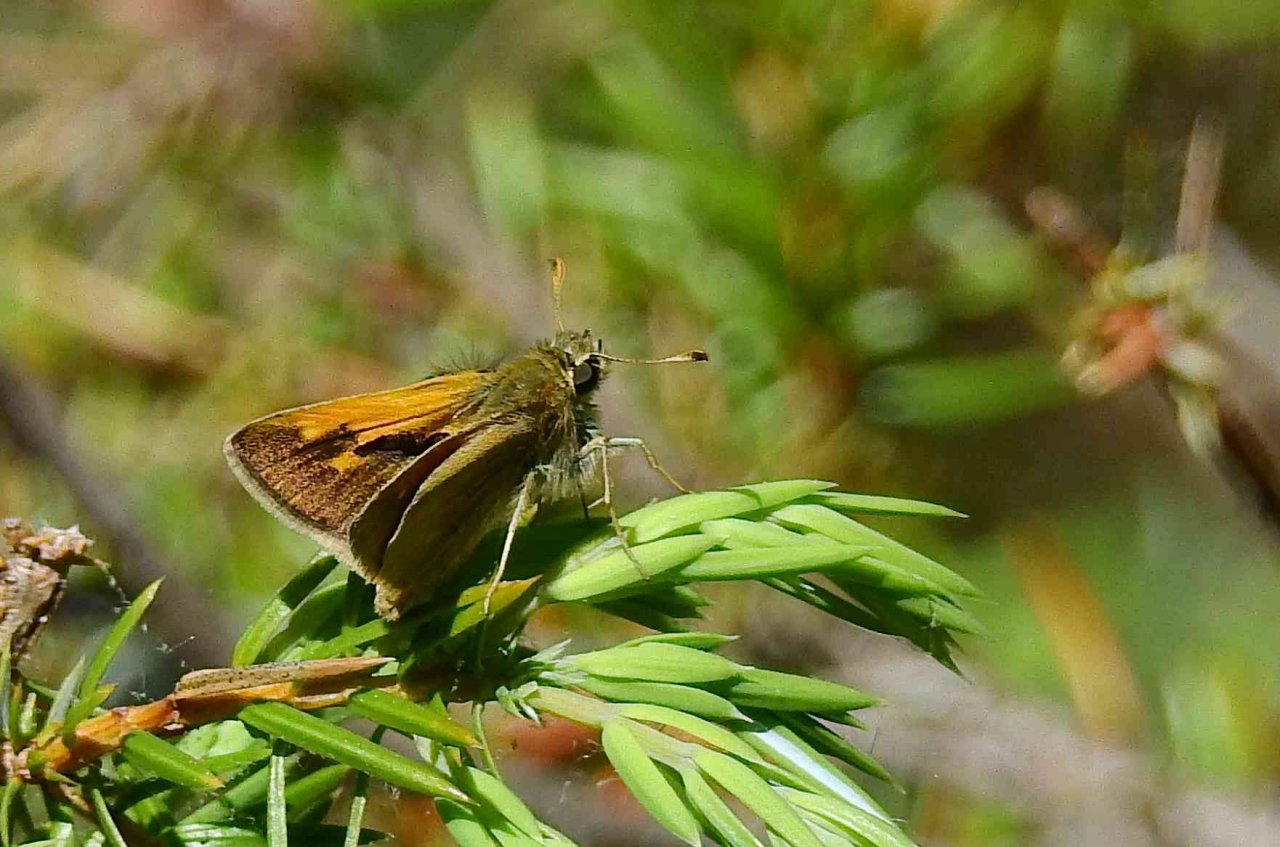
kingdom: Animalia
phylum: Arthropoda
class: Insecta
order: Lepidoptera
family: Hesperiidae
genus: Polites
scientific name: Polites themistocles
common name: Tawny-edged Skipper
